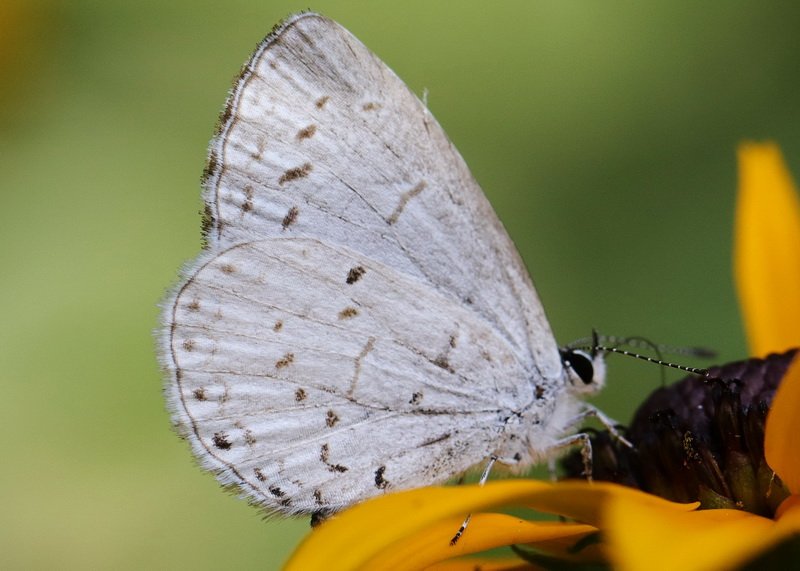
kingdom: Animalia
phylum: Arthropoda
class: Insecta
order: Lepidoptera
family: Lycaenidae
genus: Celastrina
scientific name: Celastrina
